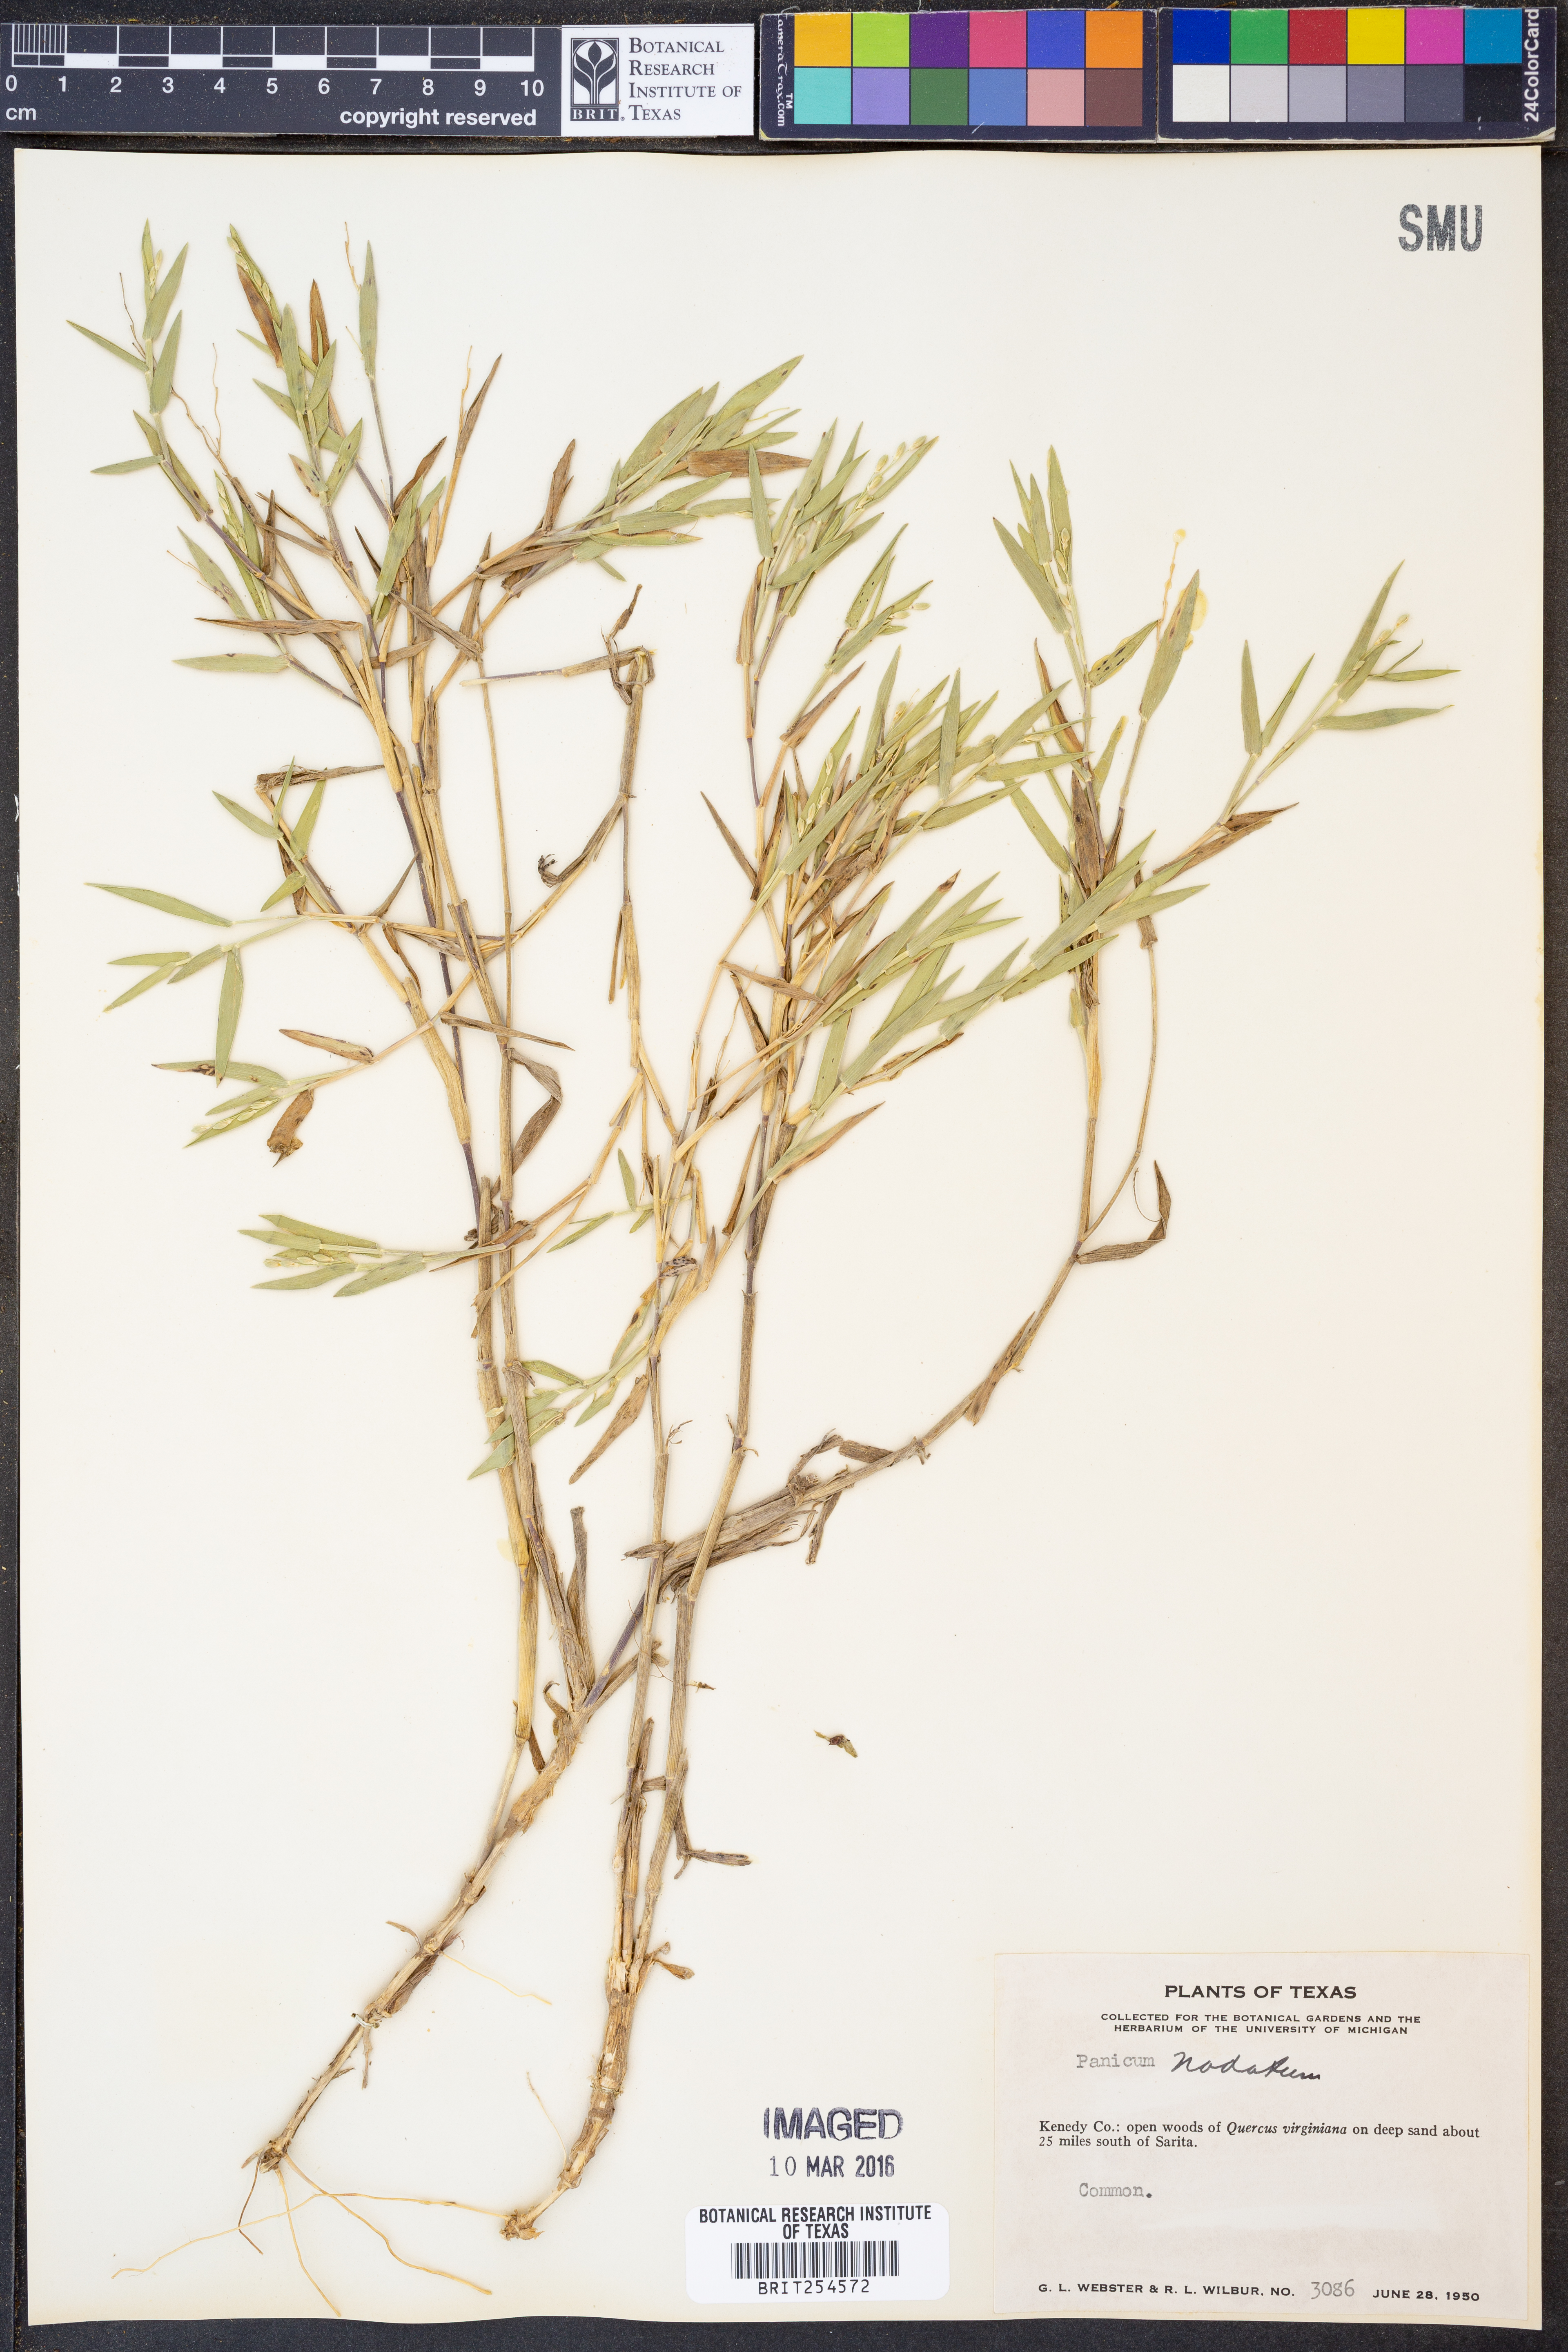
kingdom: Plantae
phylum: Tracheophyta
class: Liliopsida
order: Poales
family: Poaceae
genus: Dichanthelium
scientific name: Dichanthelium nodatum
